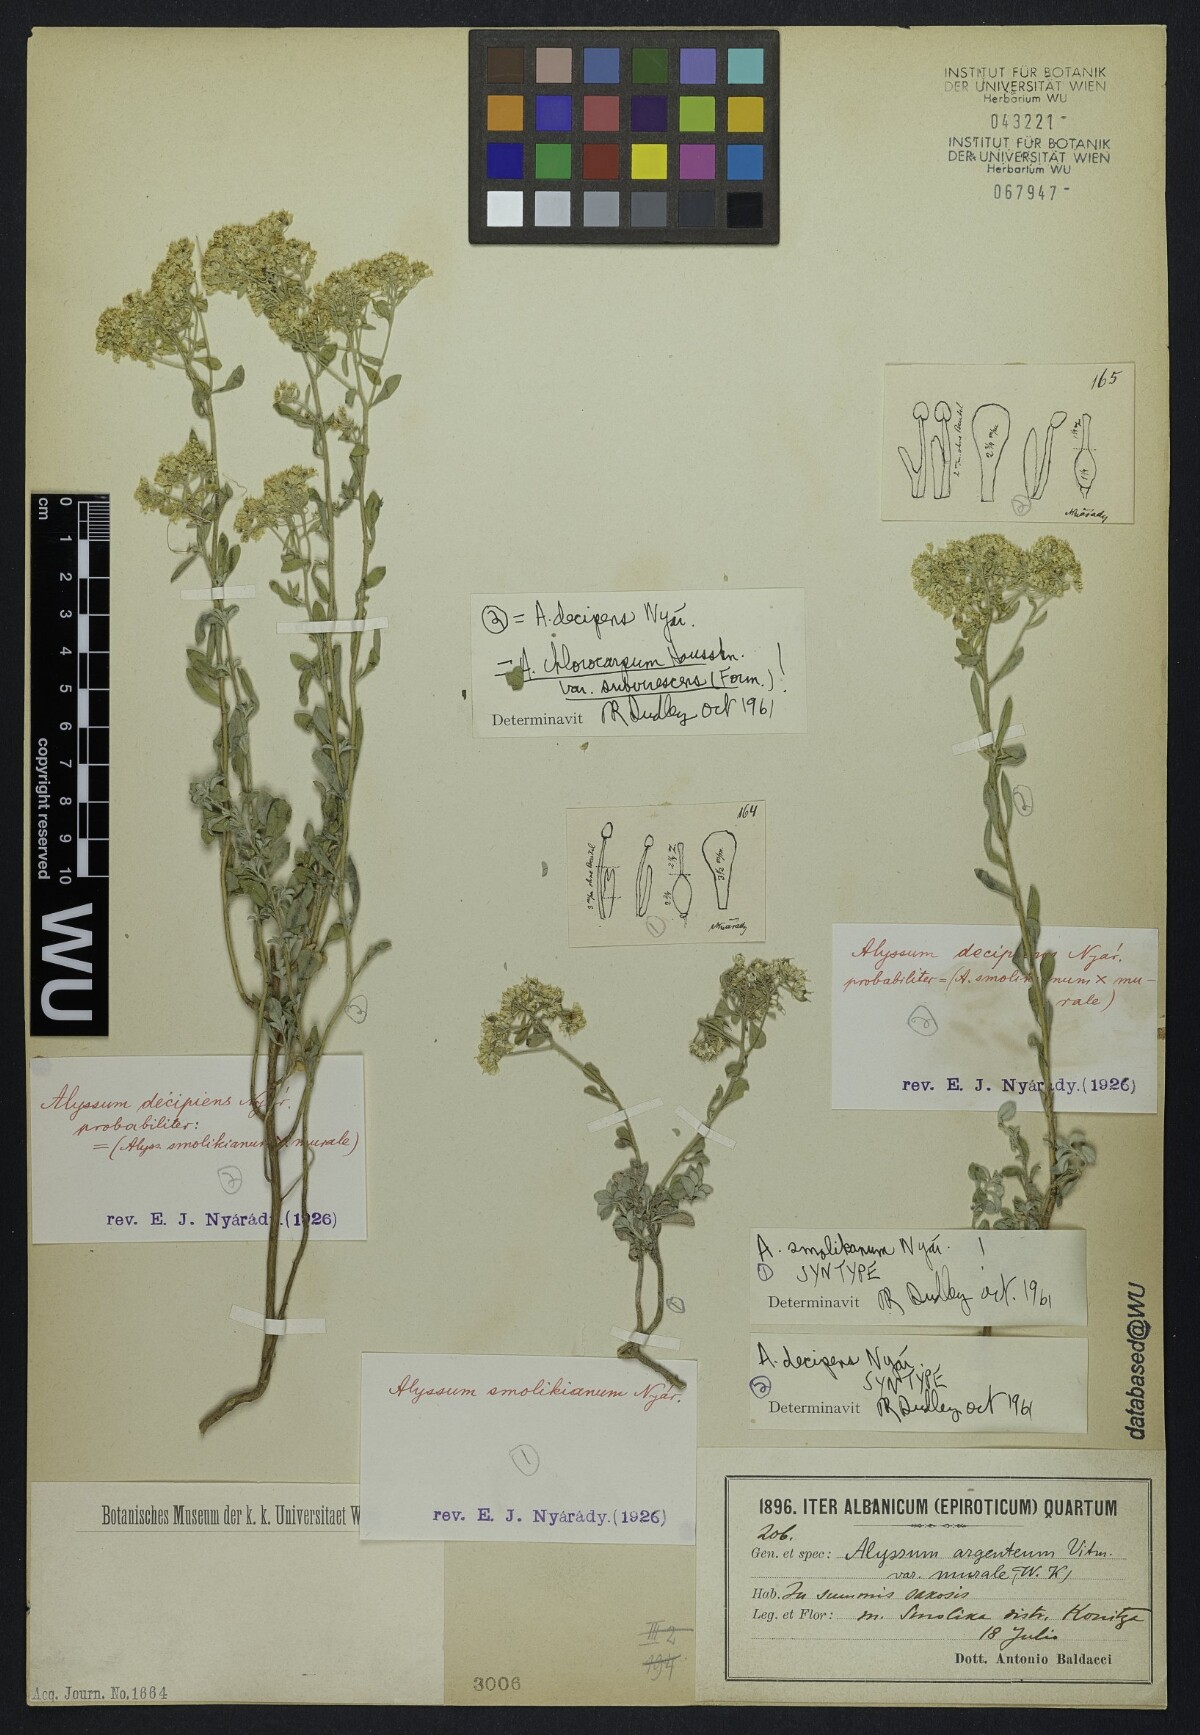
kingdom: Plantae
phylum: Tracheophyta
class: Magnoliopsida
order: Brassicales
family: Brassicaceae
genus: Odontarrhena
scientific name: Odontarrhena muralis
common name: Rock alyssum
